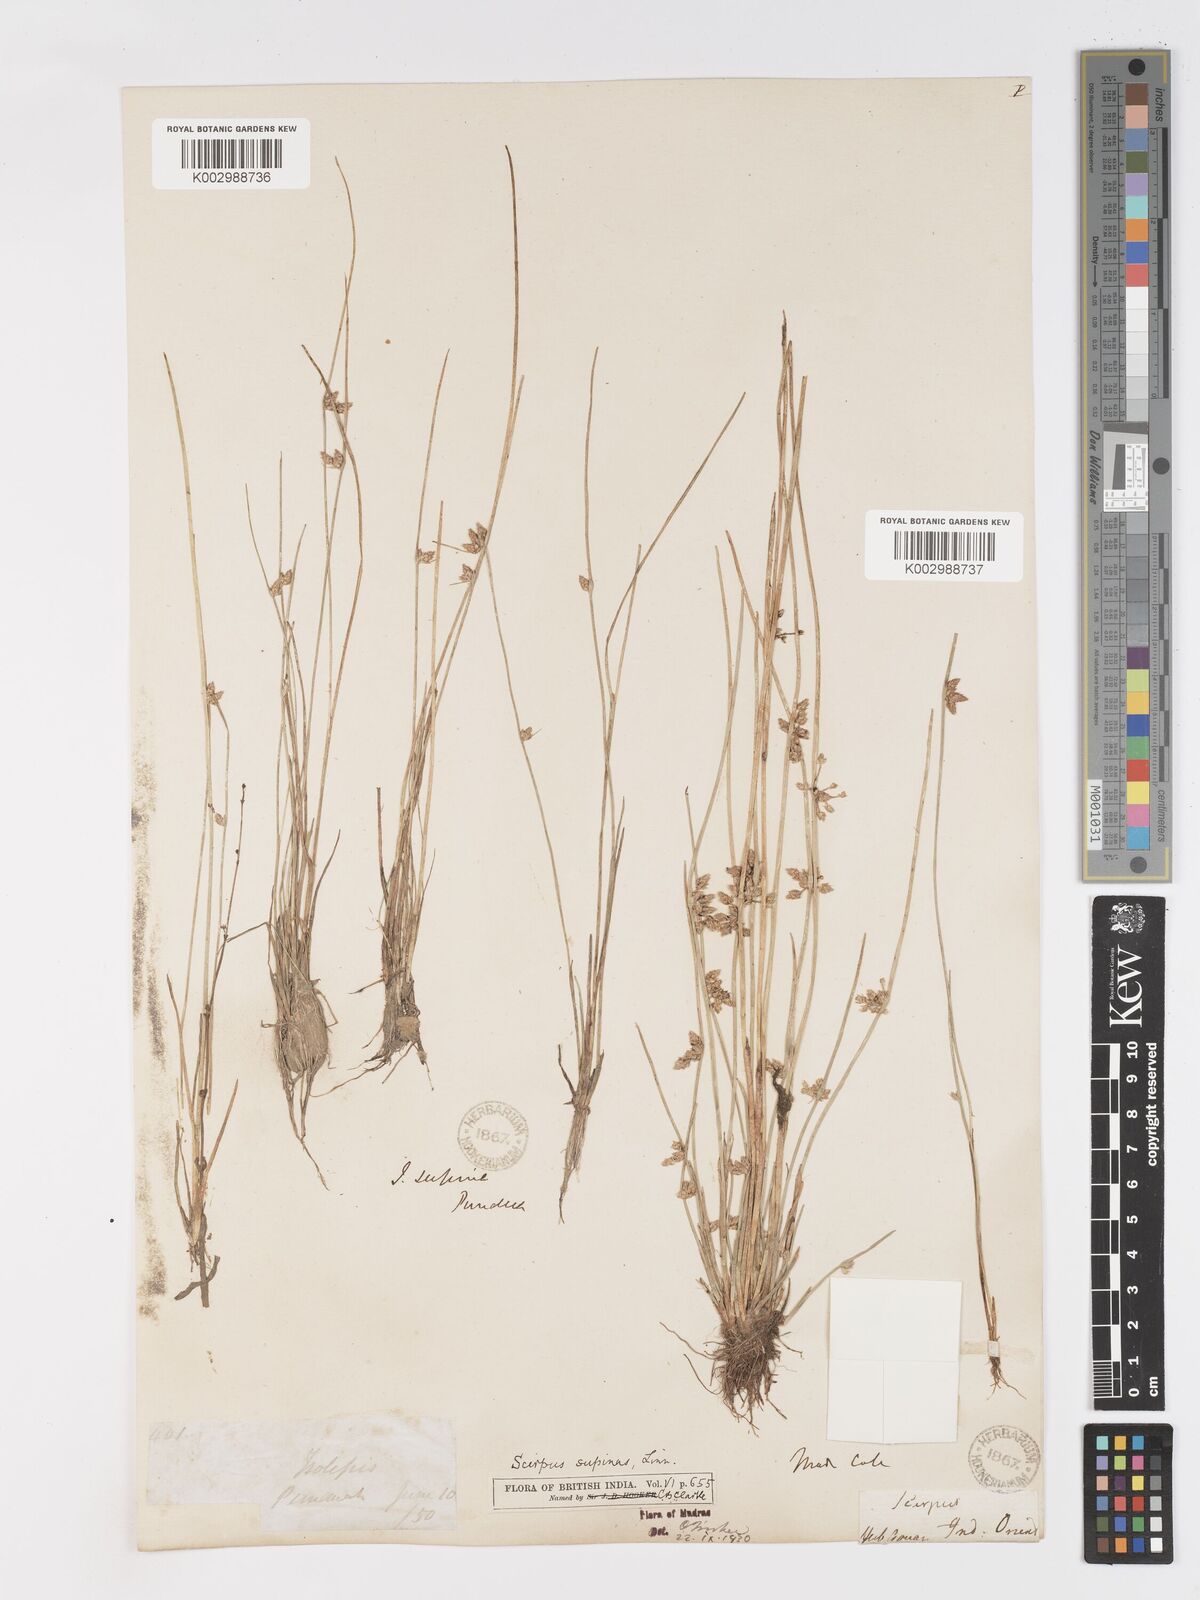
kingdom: Plantae
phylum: Tracheophyta
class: Liliopsida
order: Poales
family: Cyperaceae
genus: Schoenoplectiella
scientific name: Schoenoplectiella lateriflora
